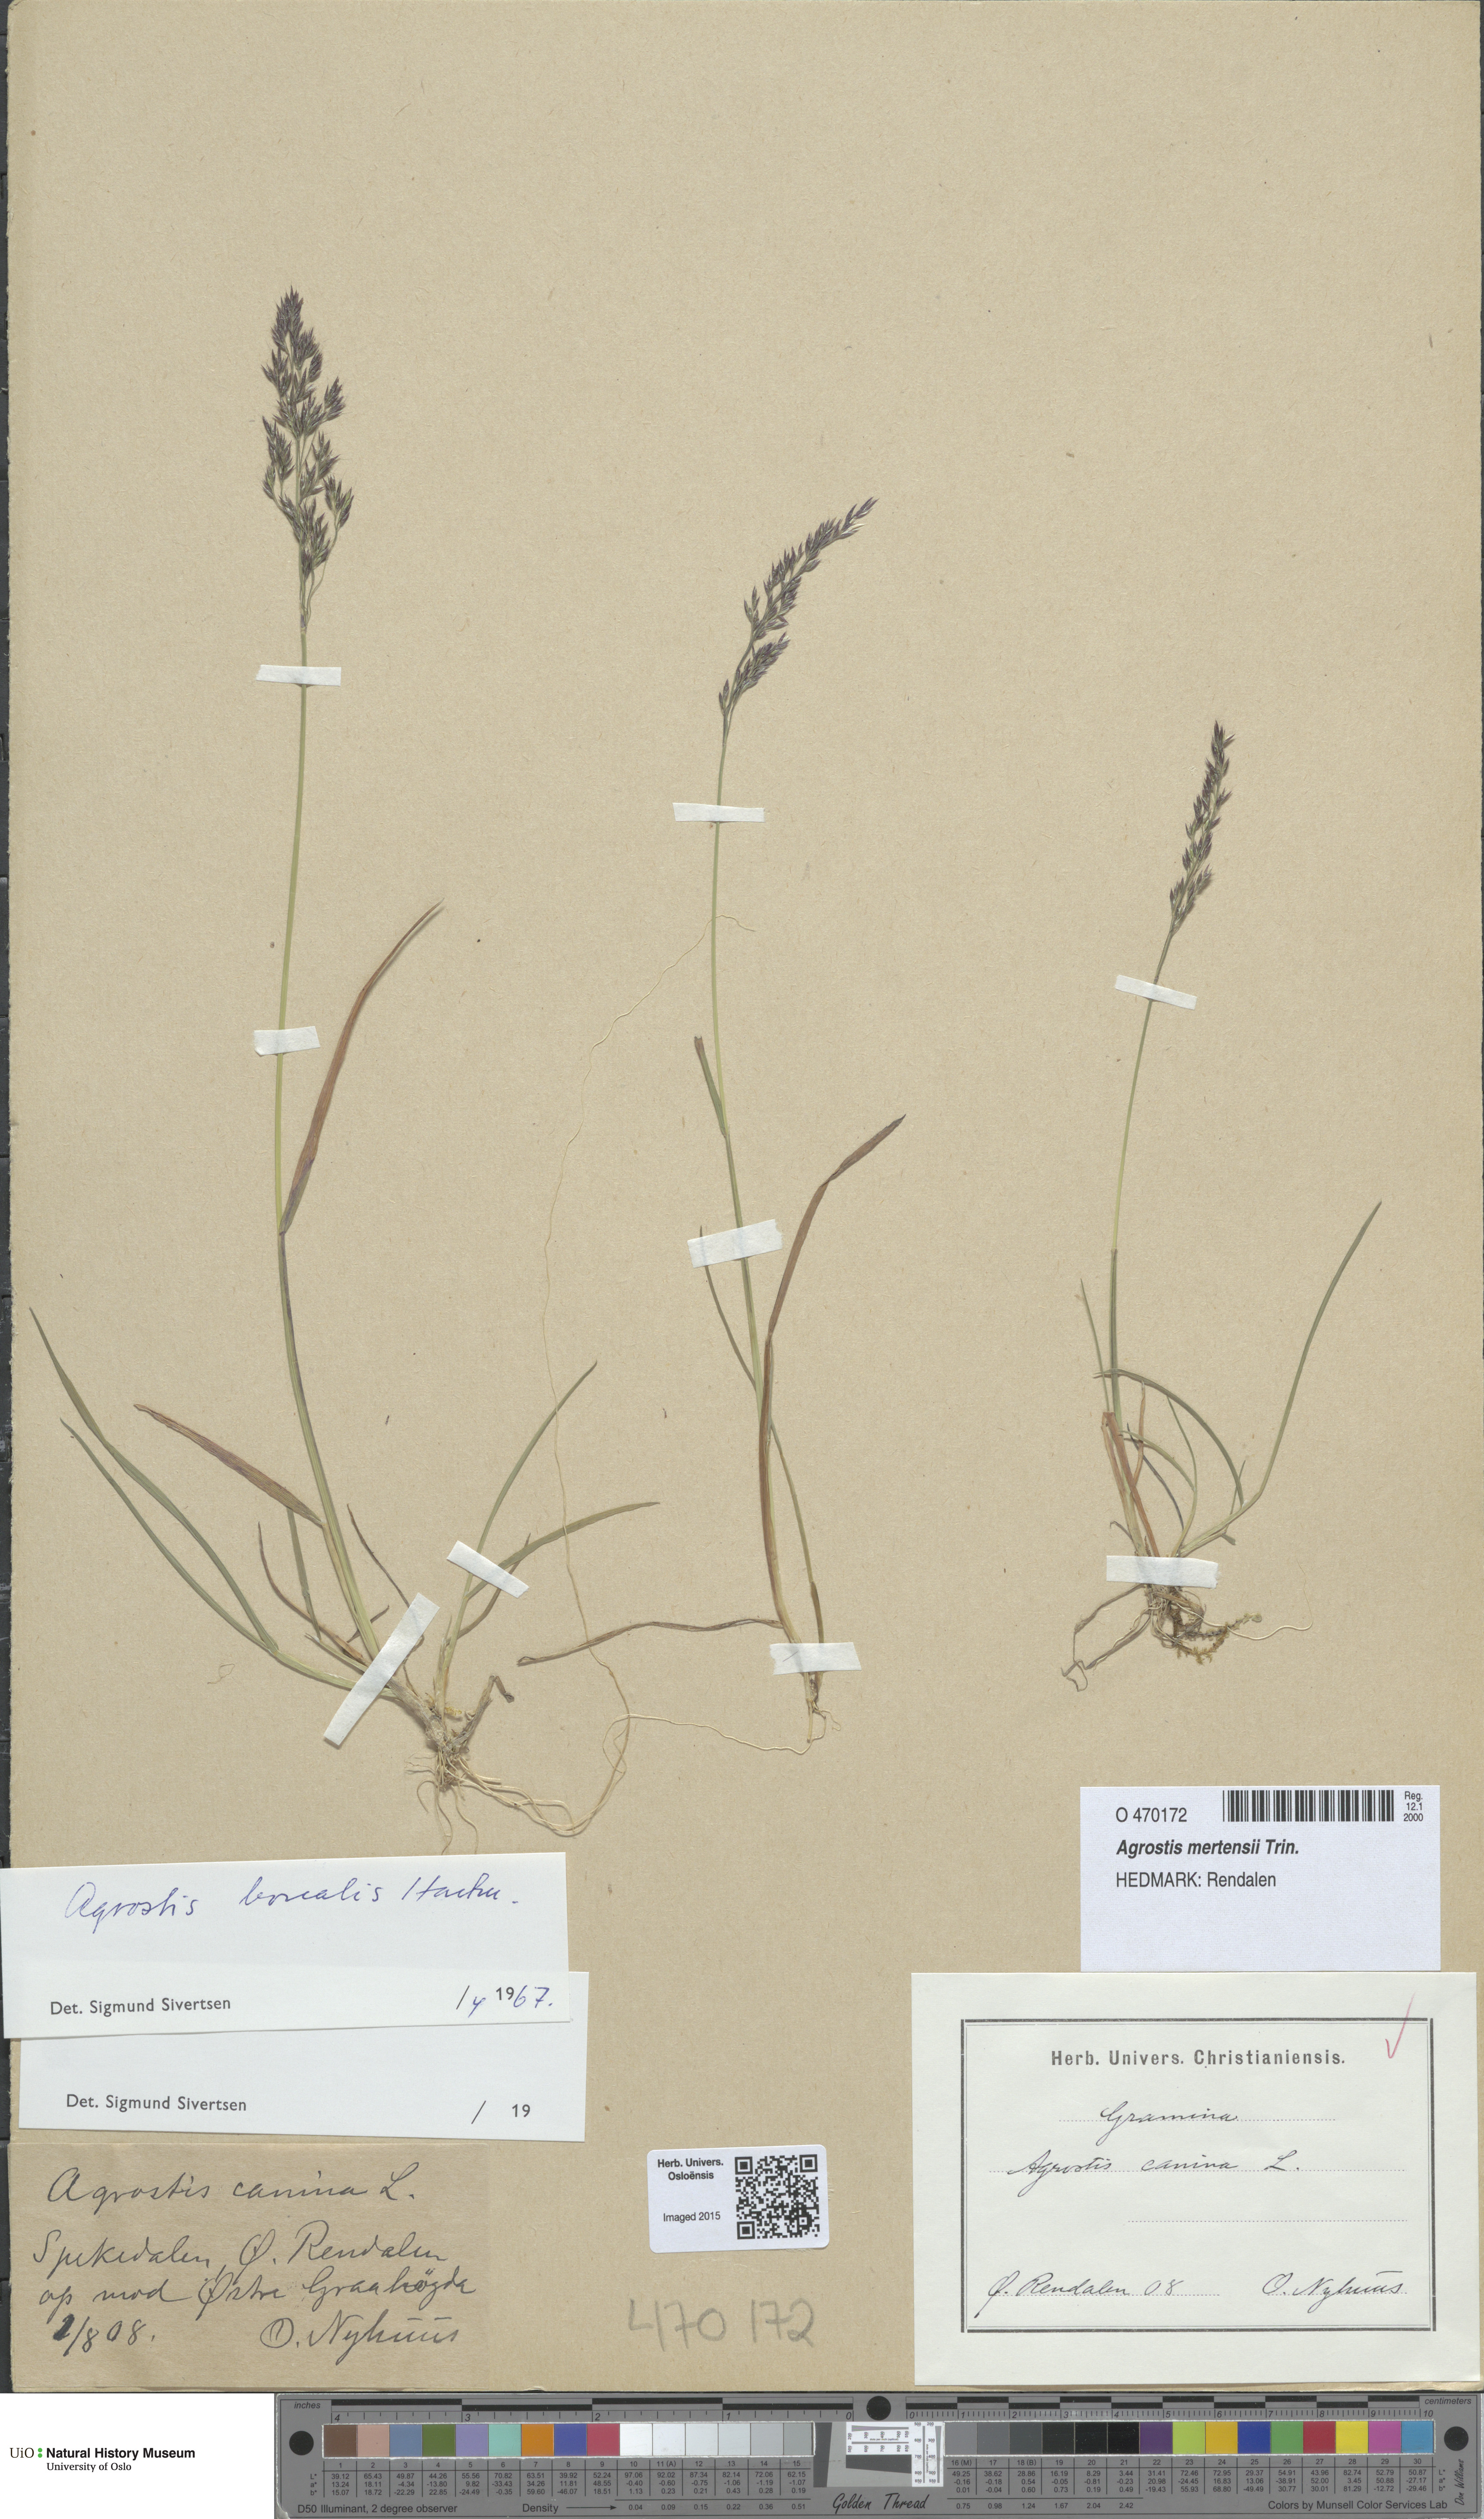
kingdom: Plantae
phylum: Tracheophyta
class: Liliopsida
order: Poales
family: Poaceae
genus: Agrostis
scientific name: Agrostis mertensii
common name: Northern bent
